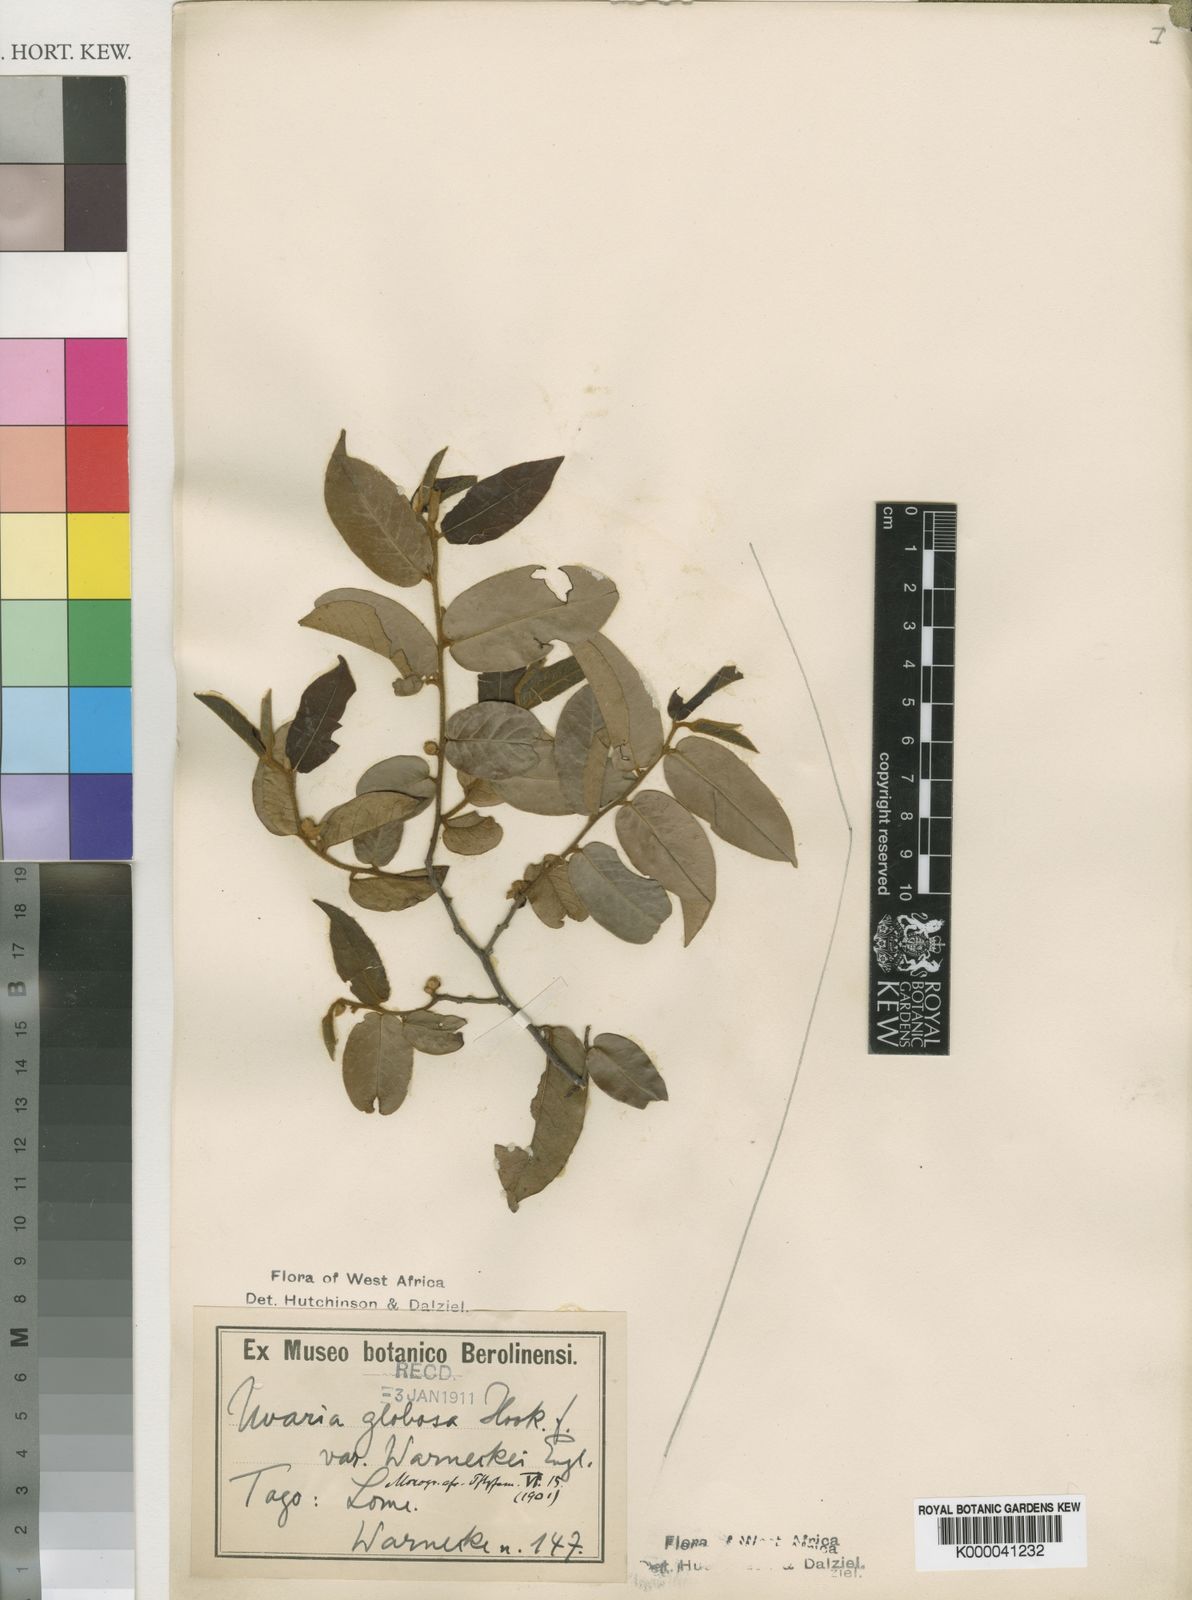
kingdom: Plantae
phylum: Tracheophyta
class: Magnoliopsida
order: Magnoliales
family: Annonaceae
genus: Uvaria
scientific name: Uvaria ovata
